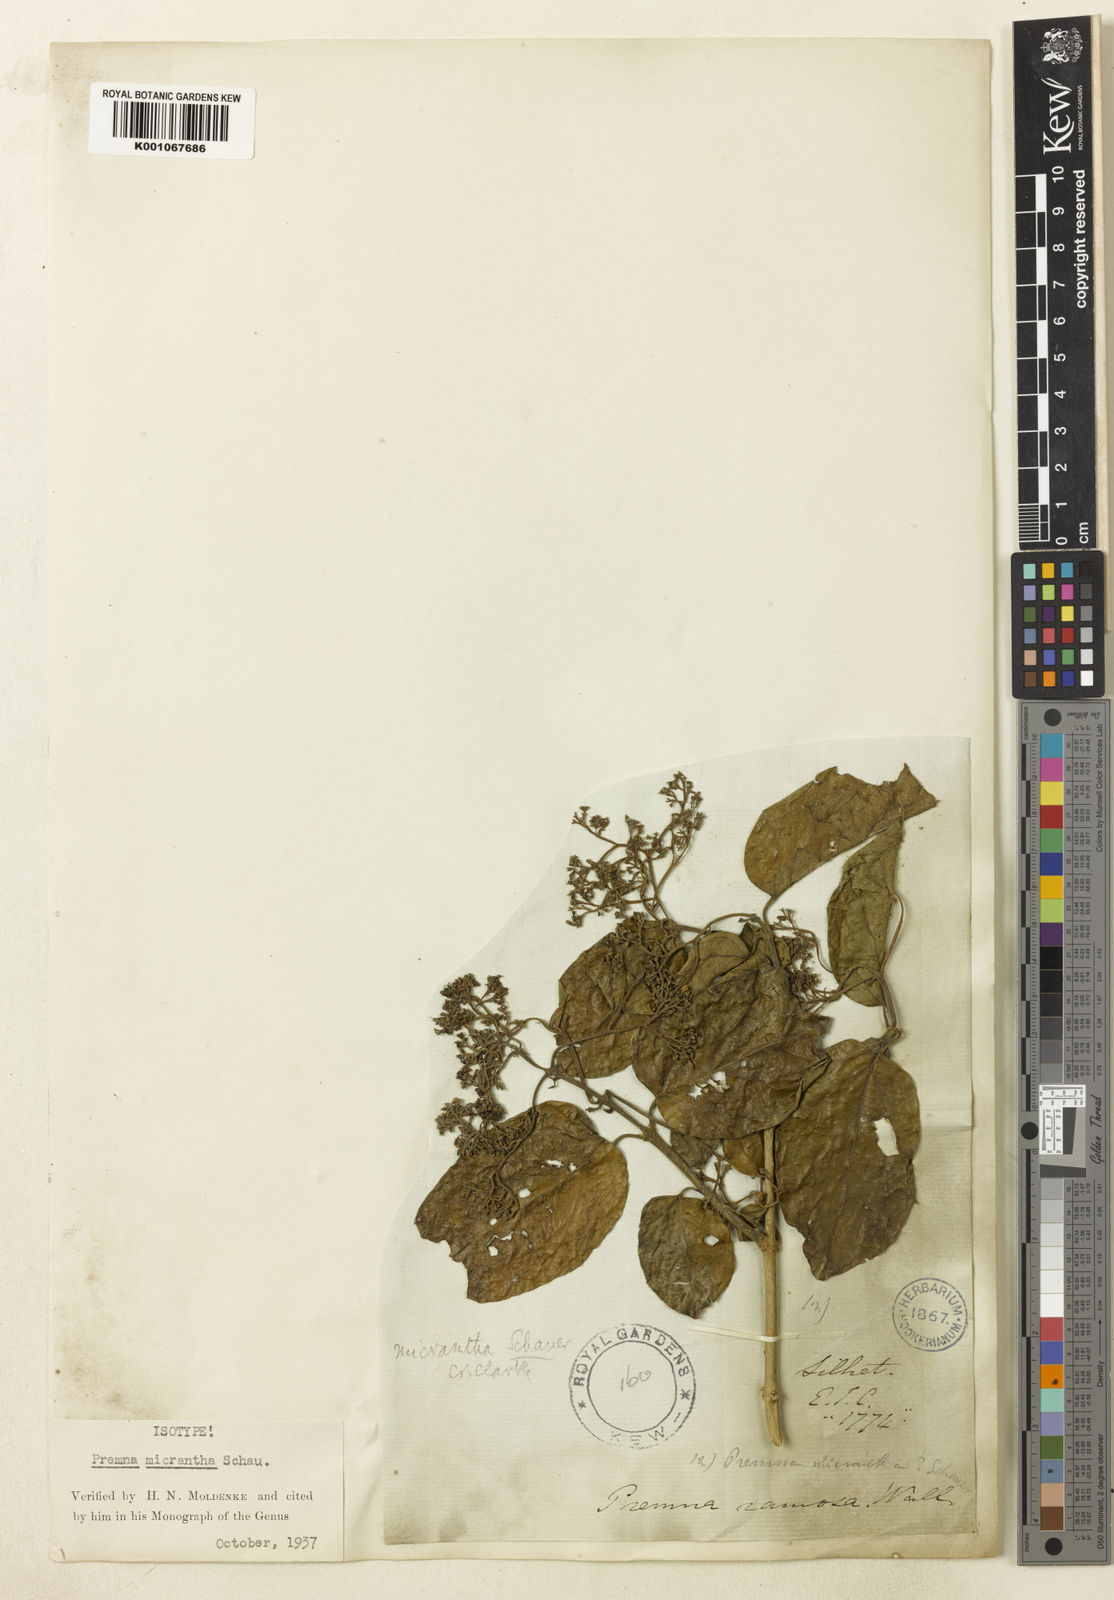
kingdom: Plantae
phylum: Tracheophyta
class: Magnoliopsida
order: Lamiales
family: Lamiaceae
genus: Premna
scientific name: Premna wightiana
